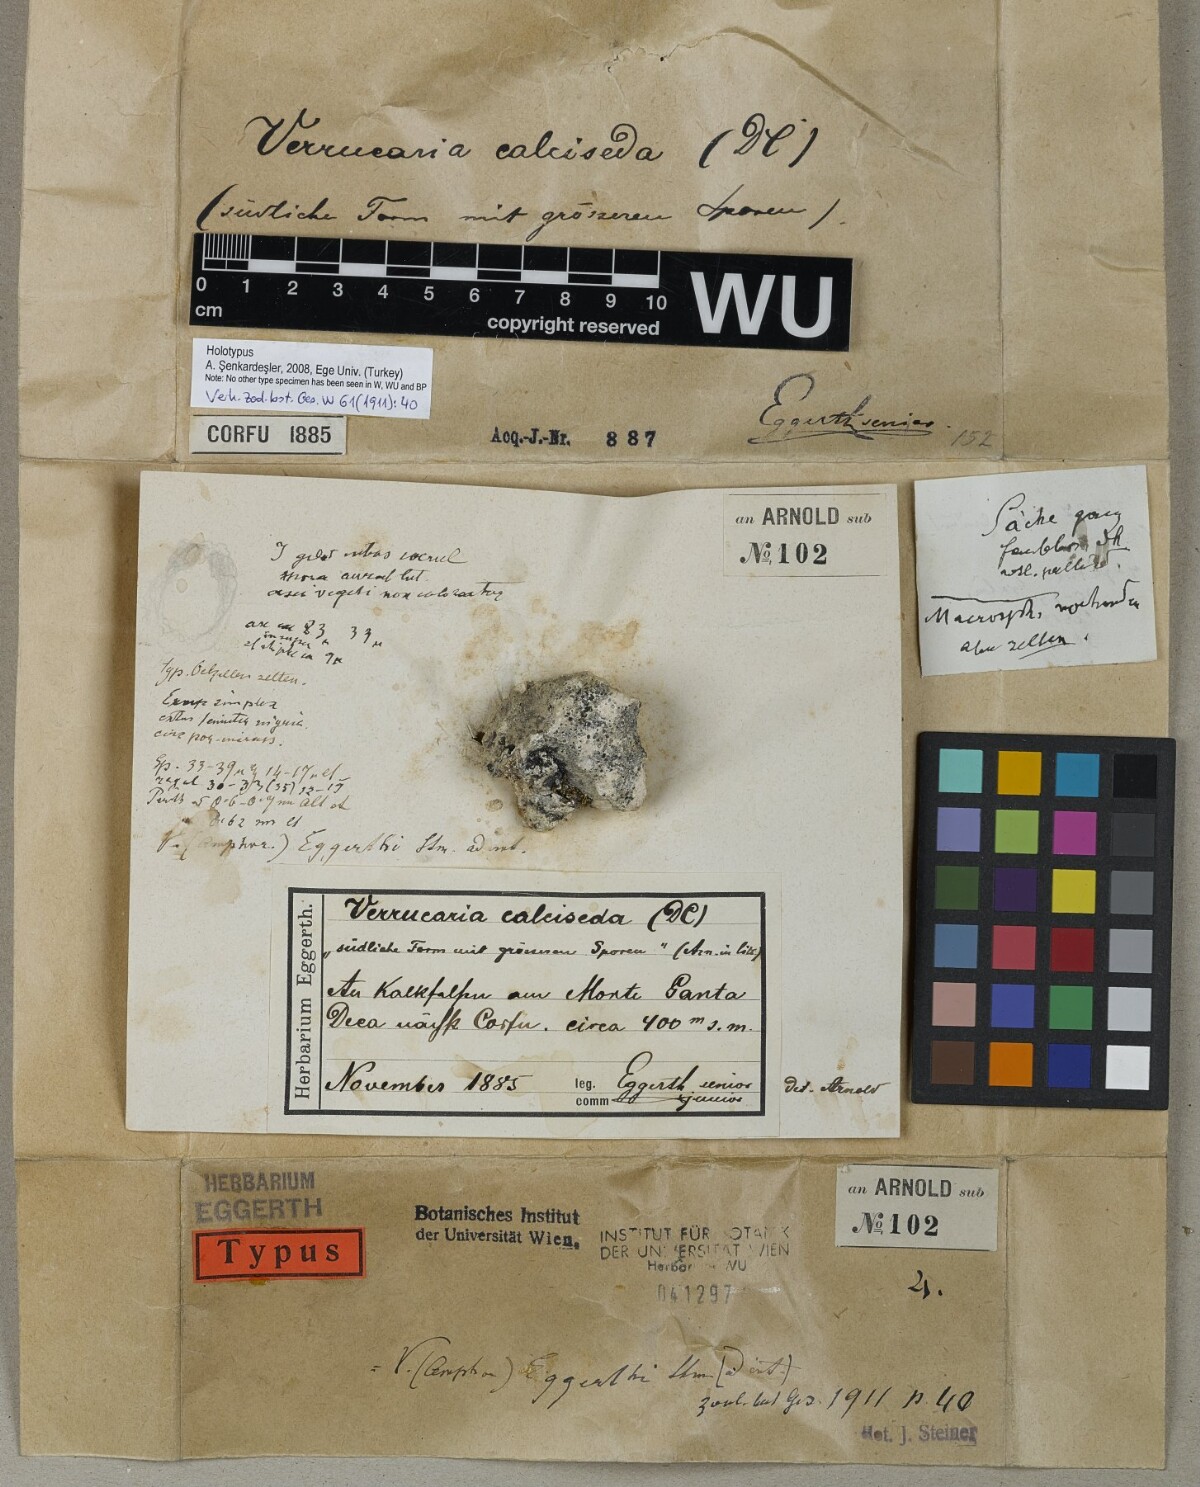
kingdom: Fungi
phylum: Ascomycota
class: Eurotiomycetes
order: Verrucariales
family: Verrucariaceae
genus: Verrucaria
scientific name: Verrucaria
